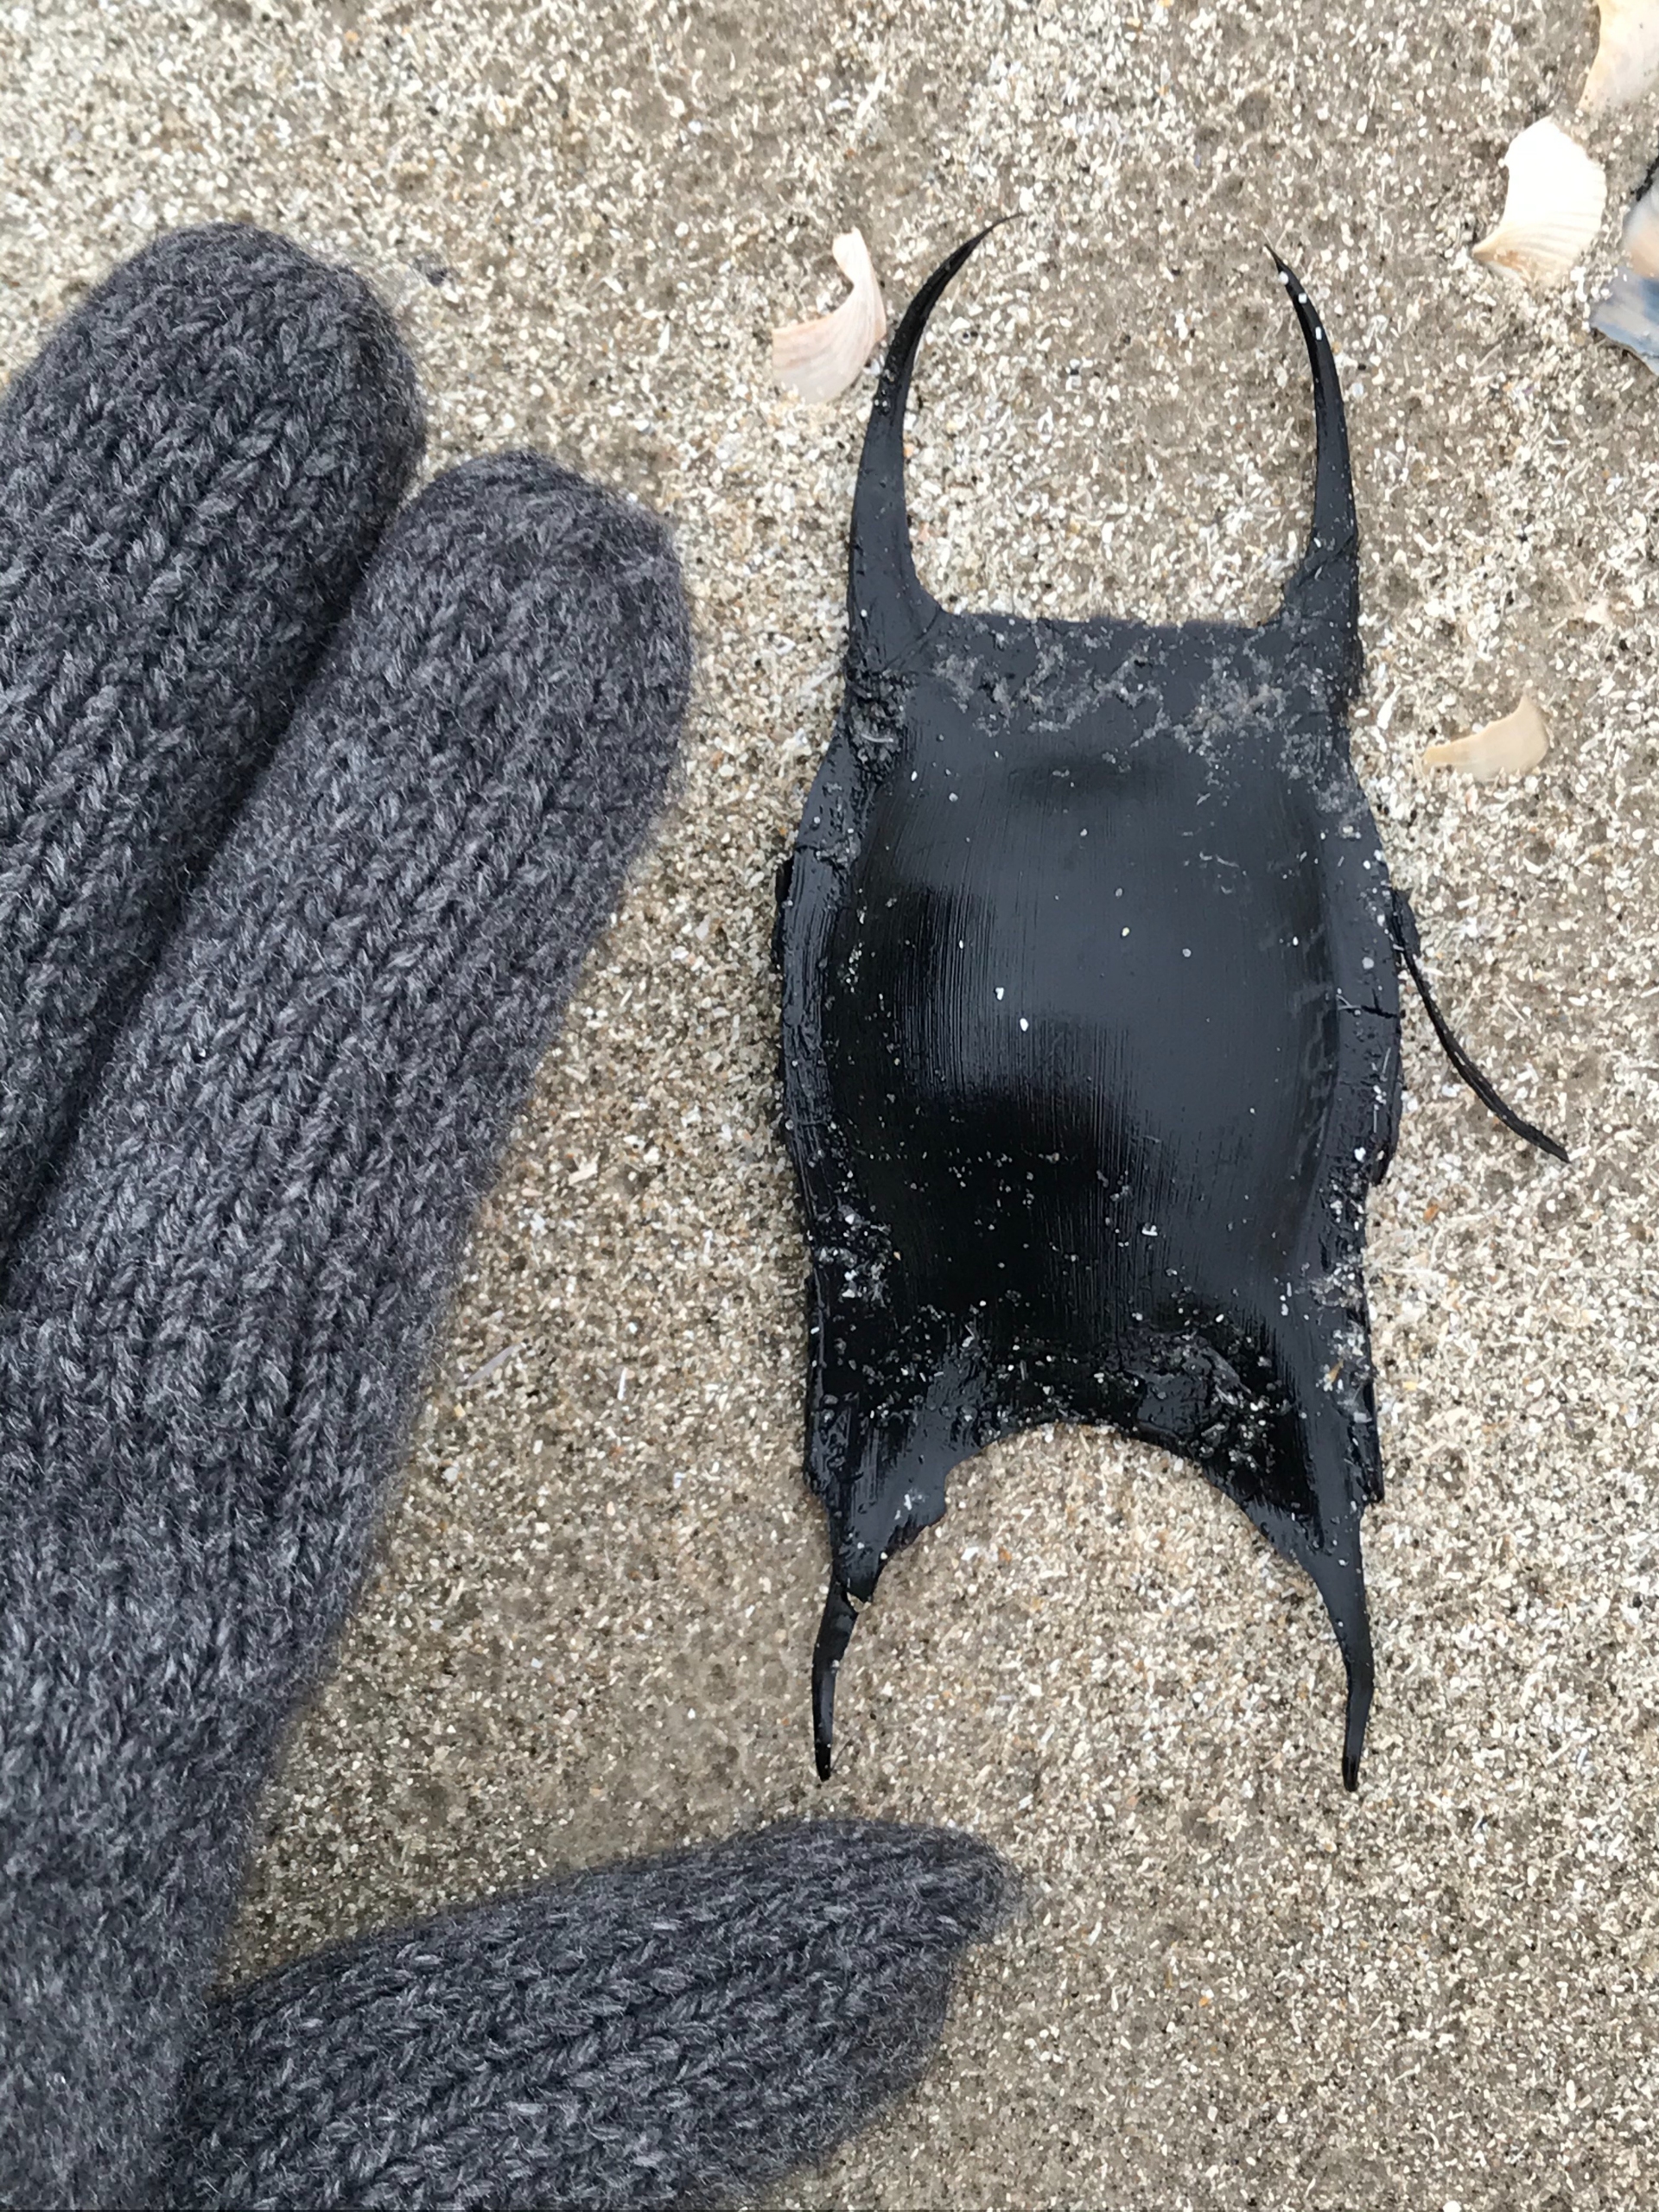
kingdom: Animalia
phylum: Chordata
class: Elasmobranchii
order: Rajiformes
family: Rajidae
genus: Raja
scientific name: Raja clavata
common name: Sømrokke
